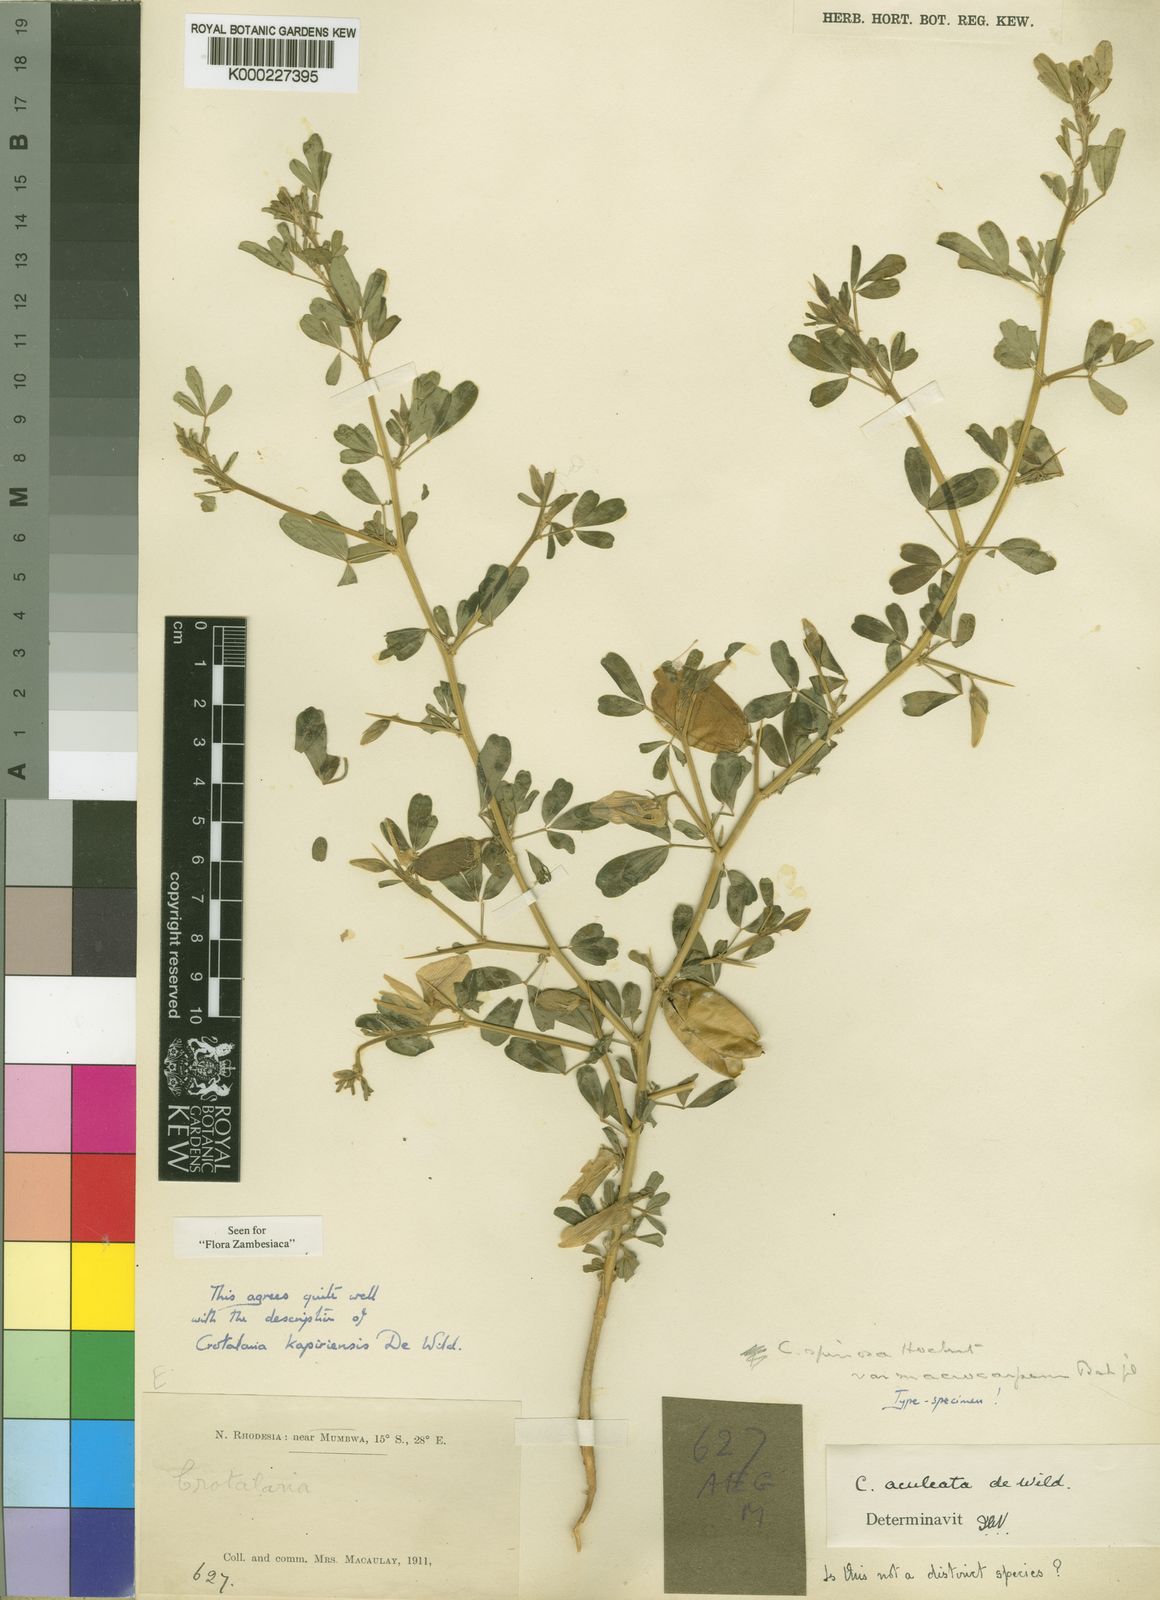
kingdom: Plantae
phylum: Tracheophyta
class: Magnoliopsida
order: Fabales
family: Fabaceae
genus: Crotalaria
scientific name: Crotalaria kapiriensis
